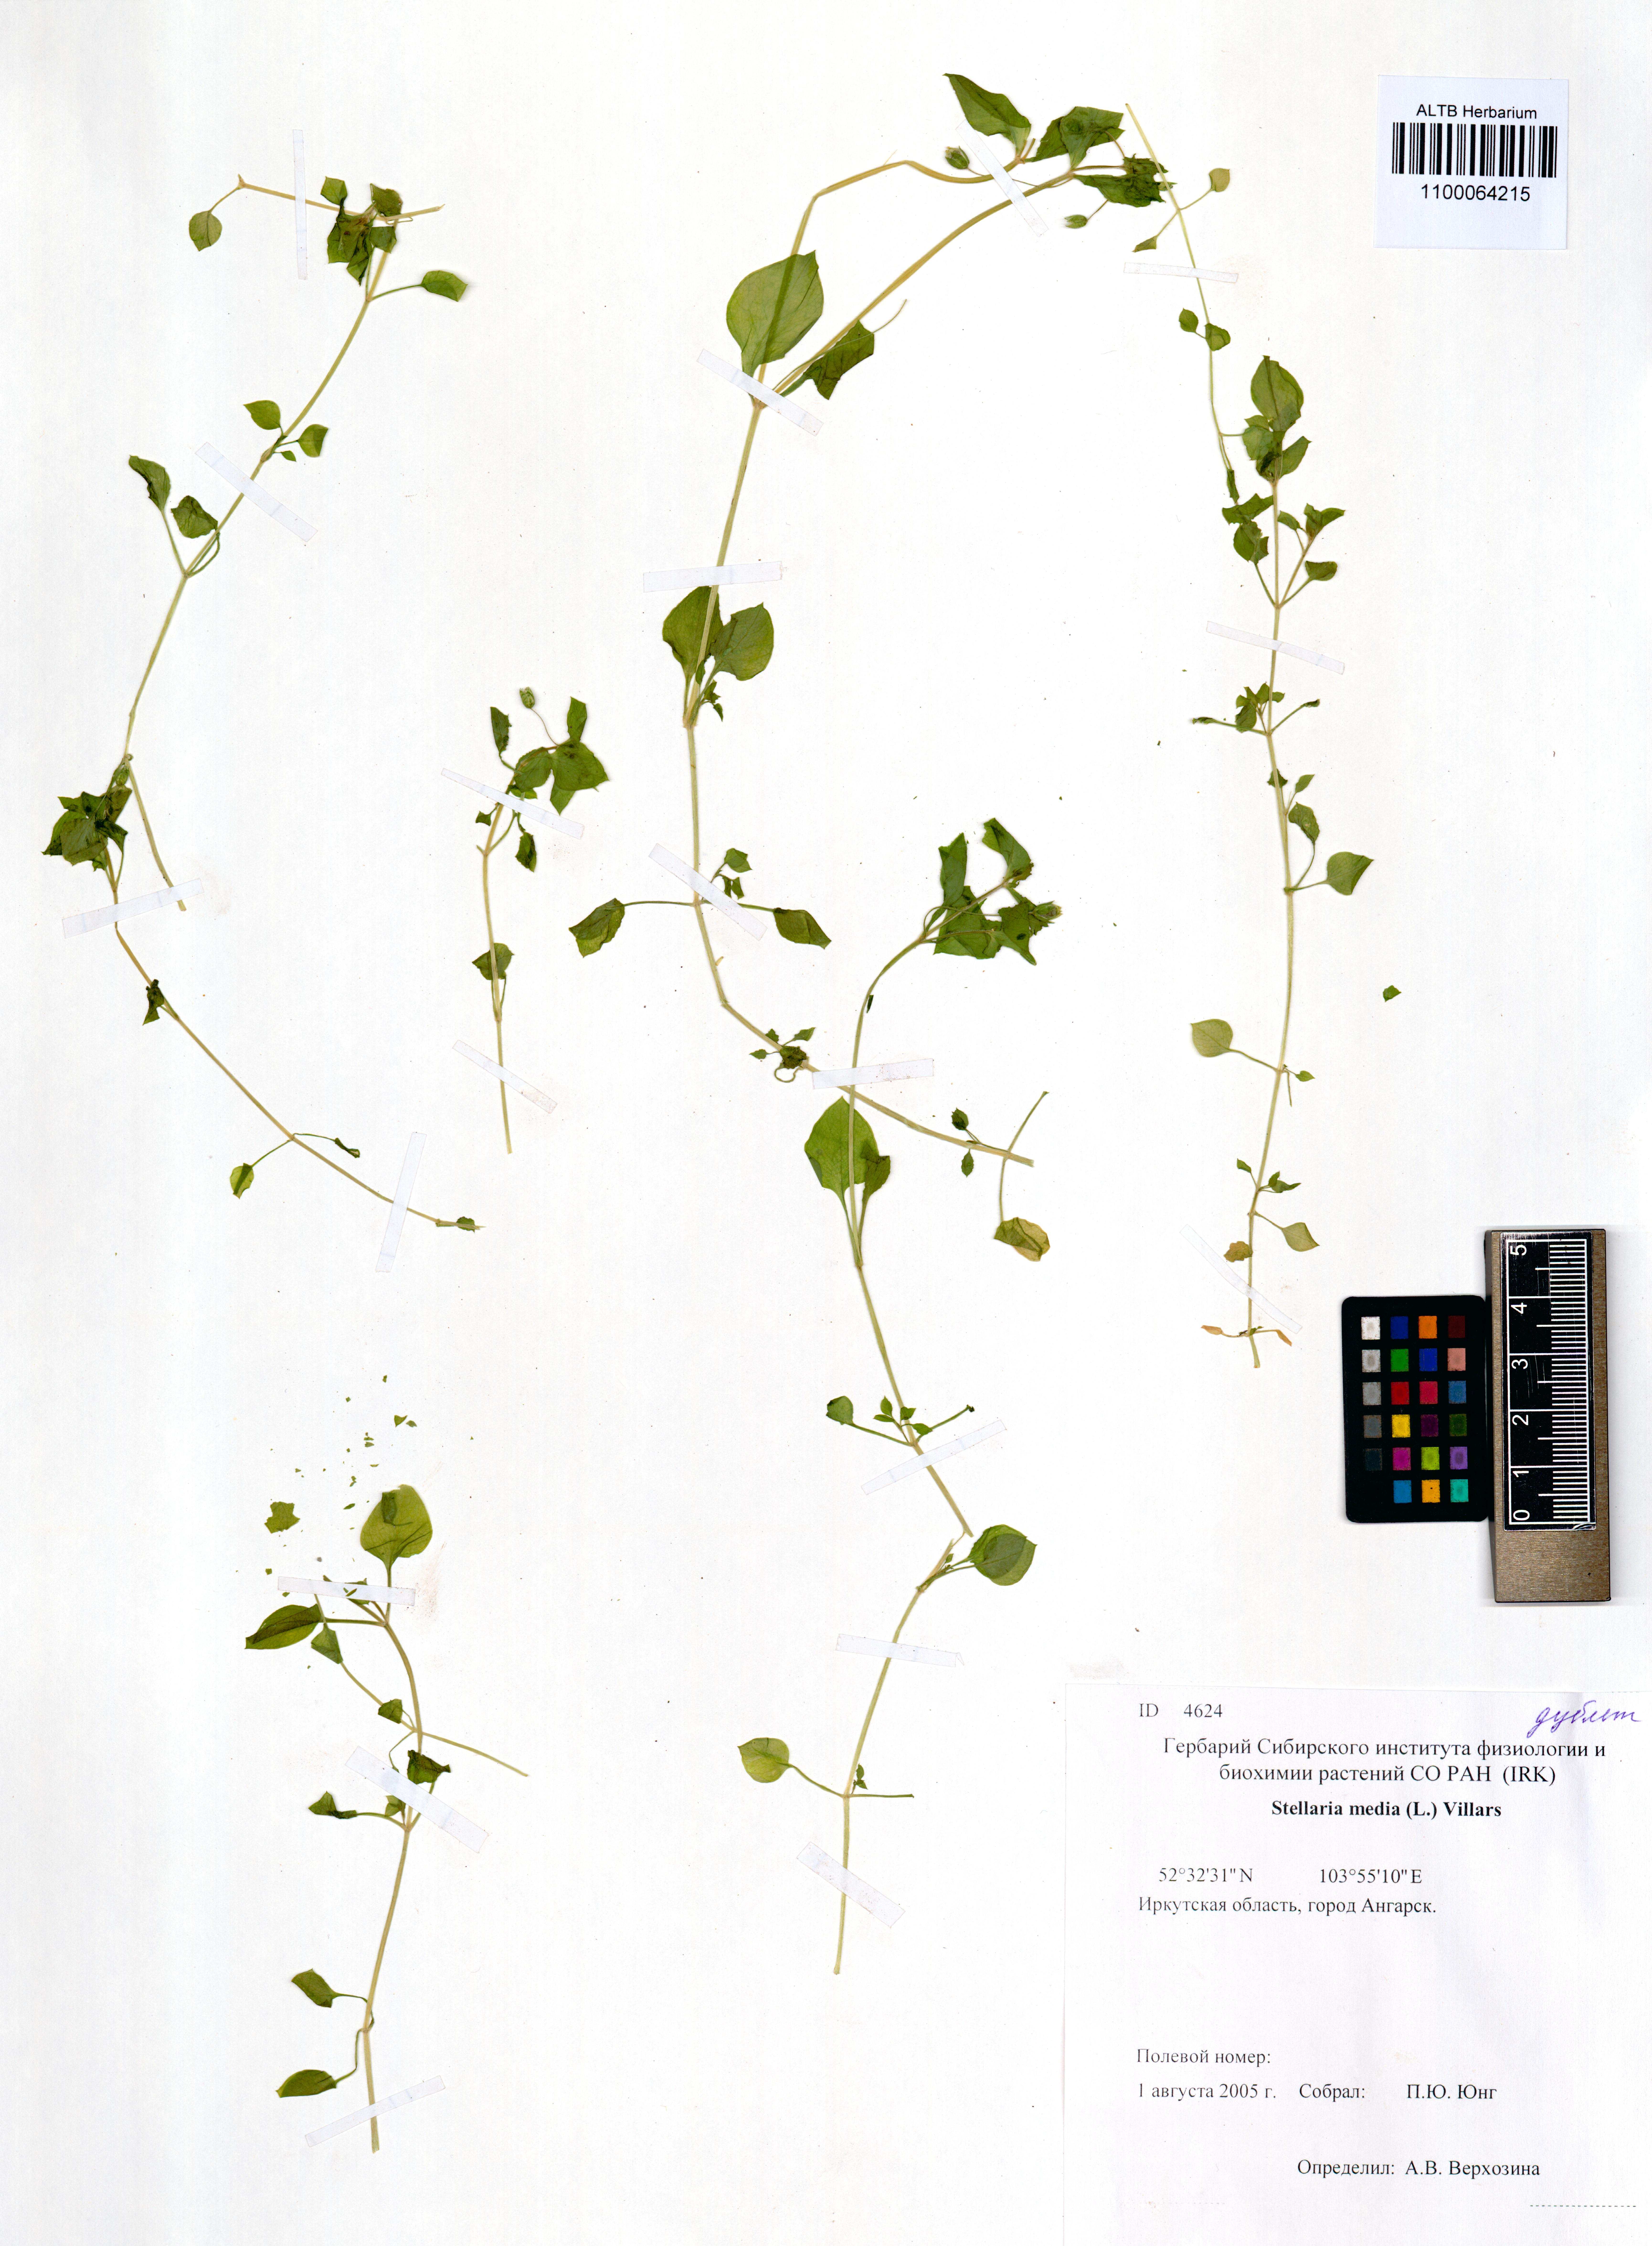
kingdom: Plantae
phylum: Tracheophyta
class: Magnoliopsida
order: Caryophyllales
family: Caryophyllaceae
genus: Stellaria
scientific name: Stellaria media
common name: Common chickweed
